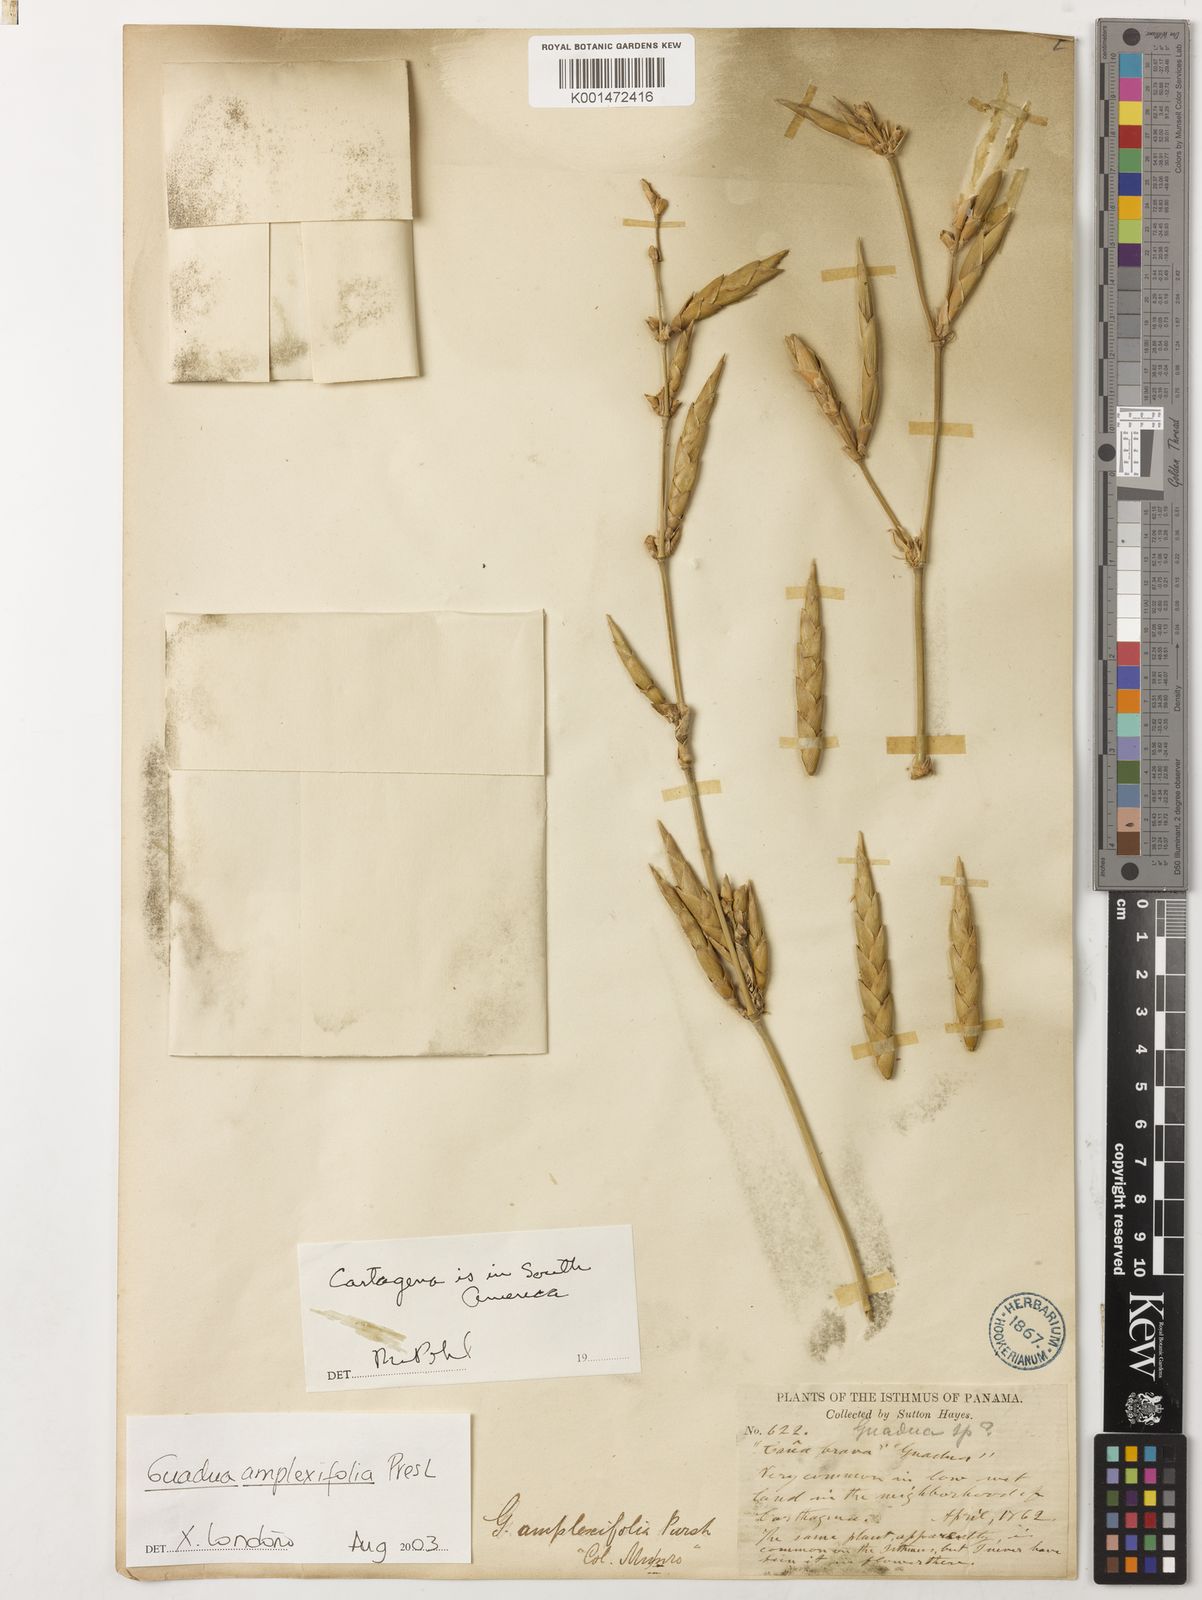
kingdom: Plantae
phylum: Tracheophyta
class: Liliopsida
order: Poales
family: Poaceae
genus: Guadua
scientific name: Guadua amplexifolia
